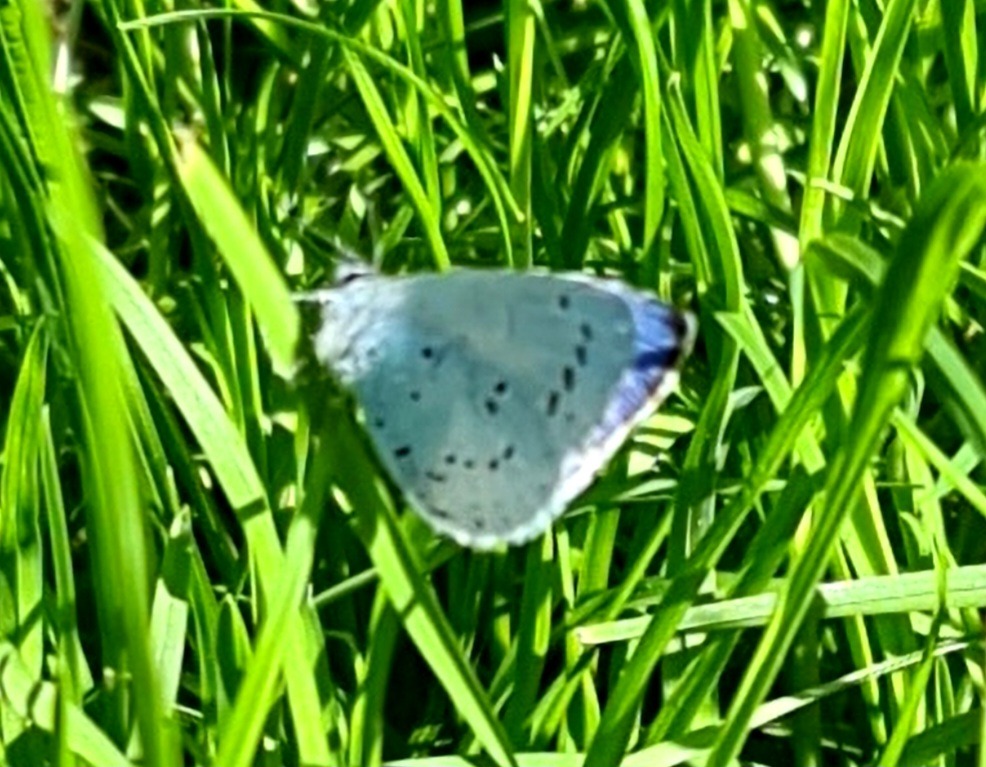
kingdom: Animalia
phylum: Arthropoda
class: Insecta
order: Lepidoptera
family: Lycaenidae
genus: Celastrina
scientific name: Celastrina argiolus
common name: Skovblåfugl
